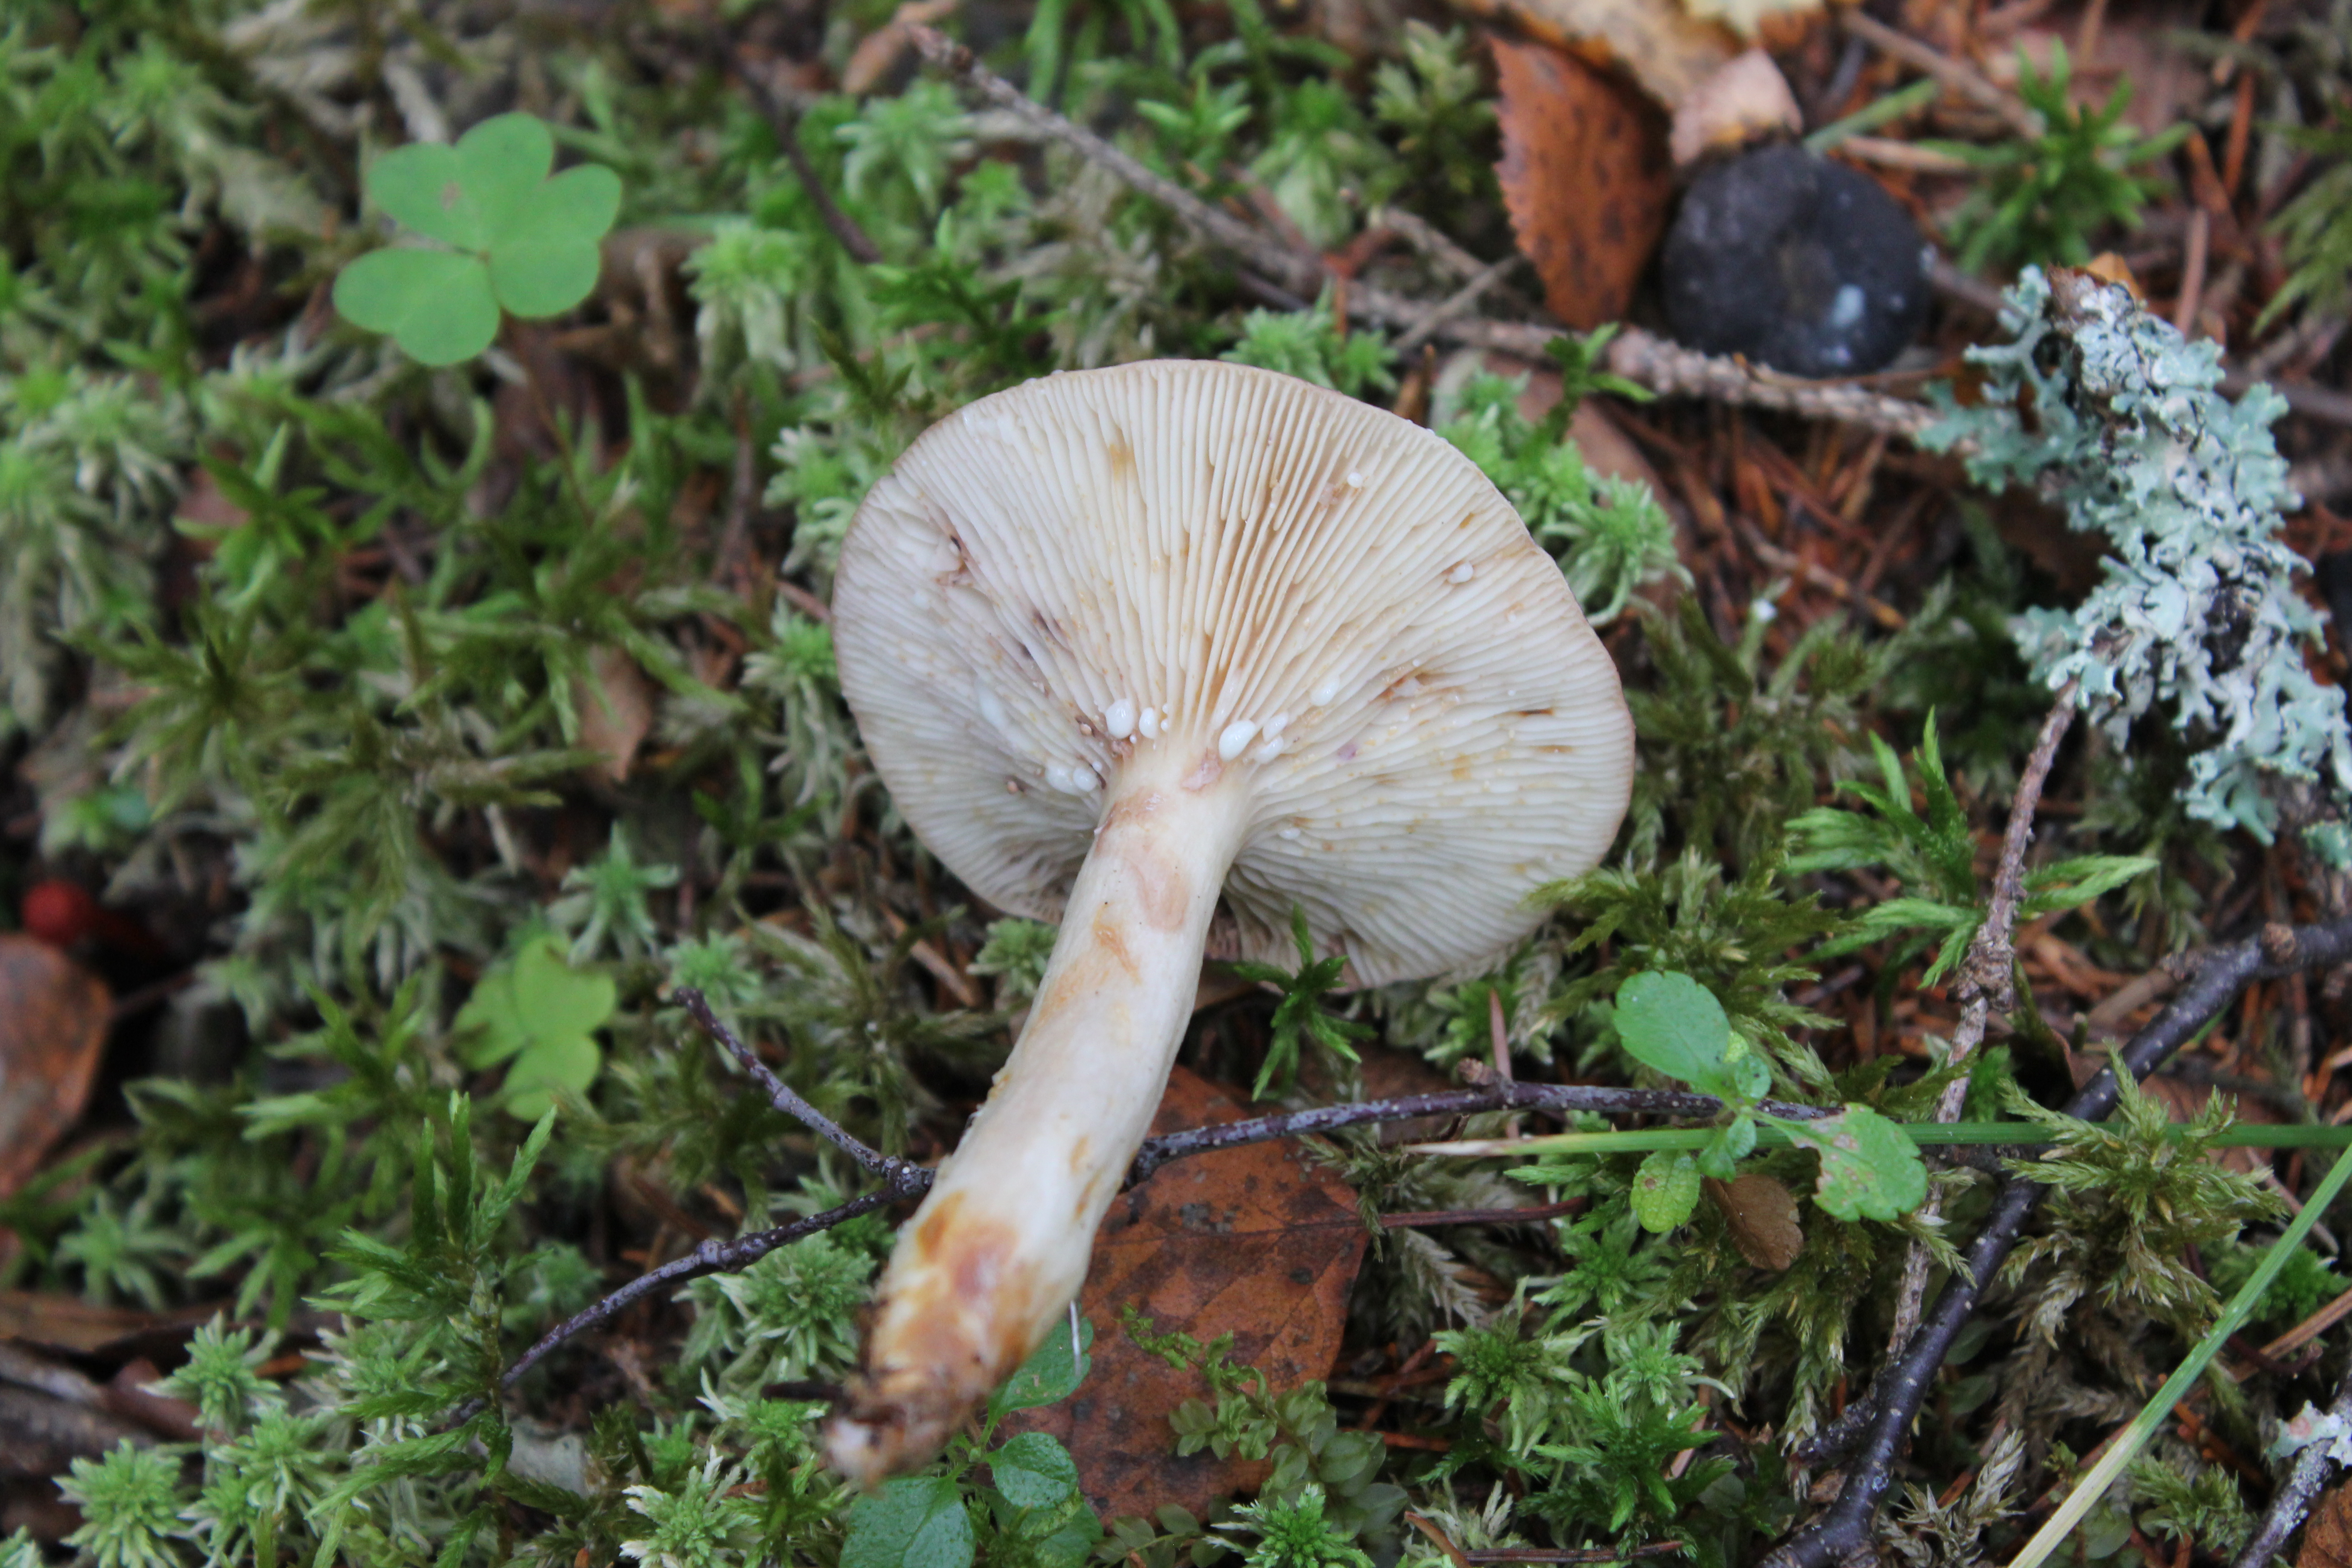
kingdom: Fungi
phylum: Basidiomycota
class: Agaricomycetes
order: Russulales
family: Russulaceae
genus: Lactarius
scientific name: Lactarius uvidus
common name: Shiner milkcap
